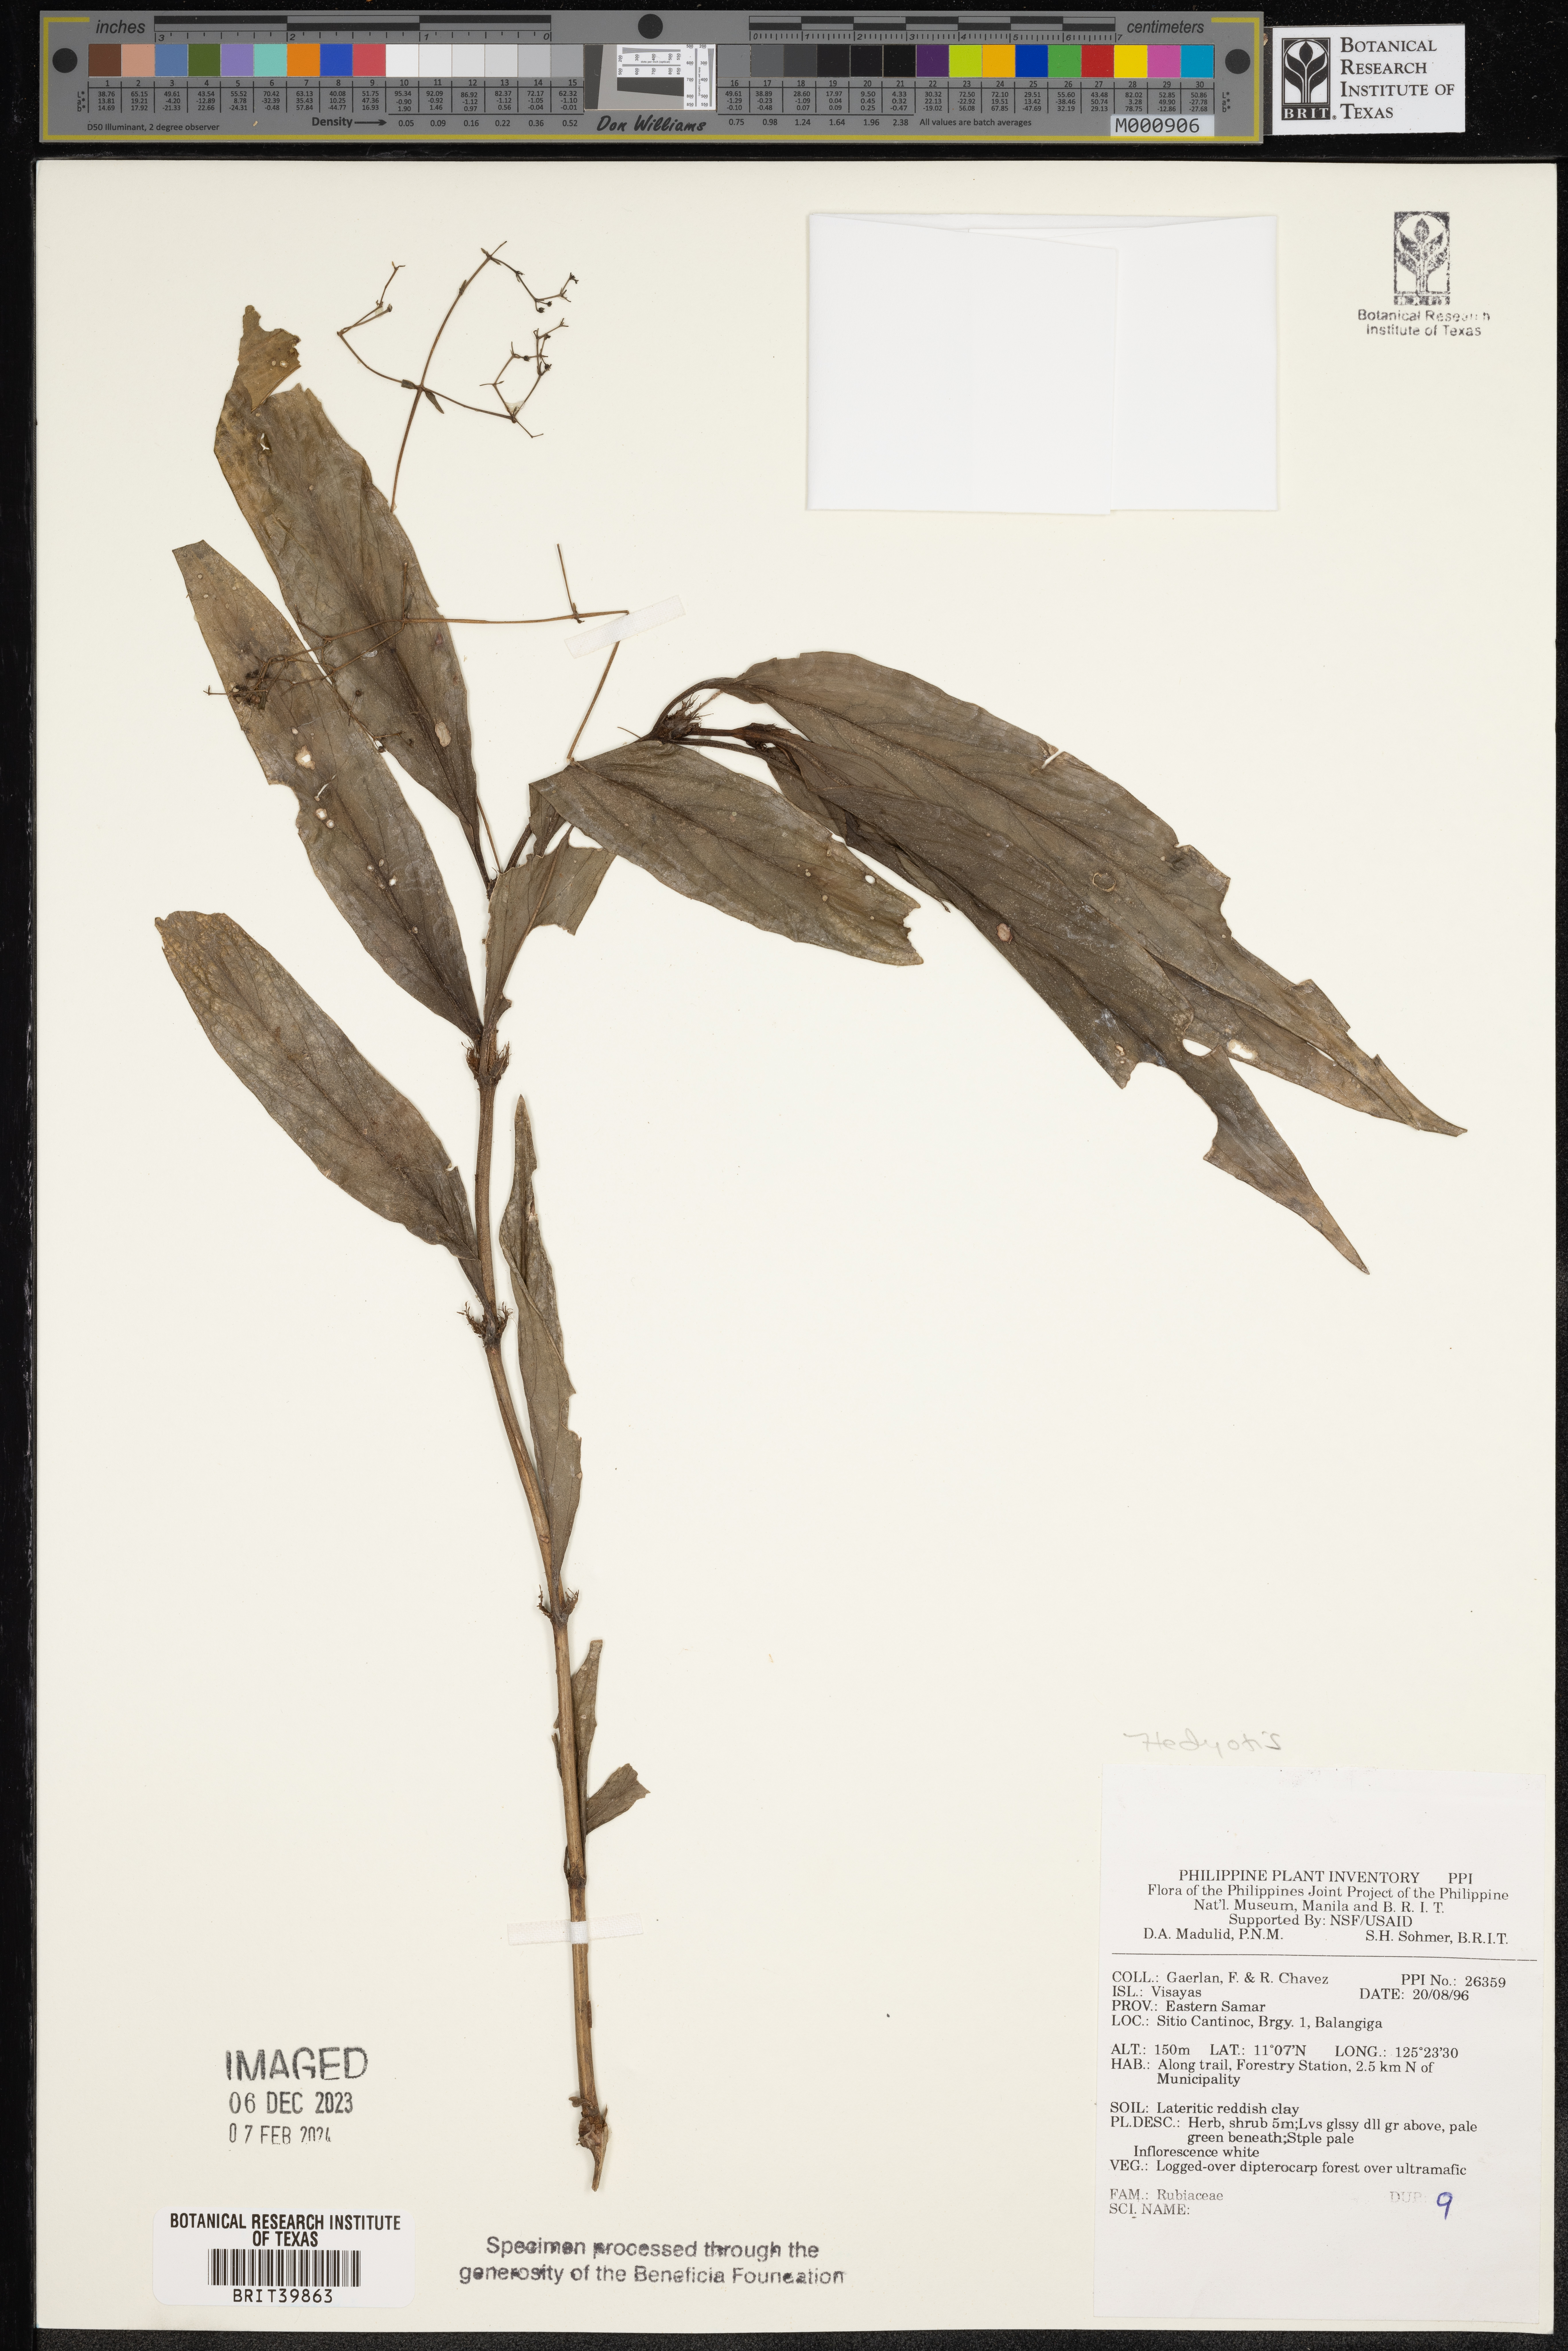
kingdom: Plantae
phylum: Tracheophyta
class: Magnoliopsida
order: Gentianales
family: Rubiaceae
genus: Hedyotis
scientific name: Hedyotis
